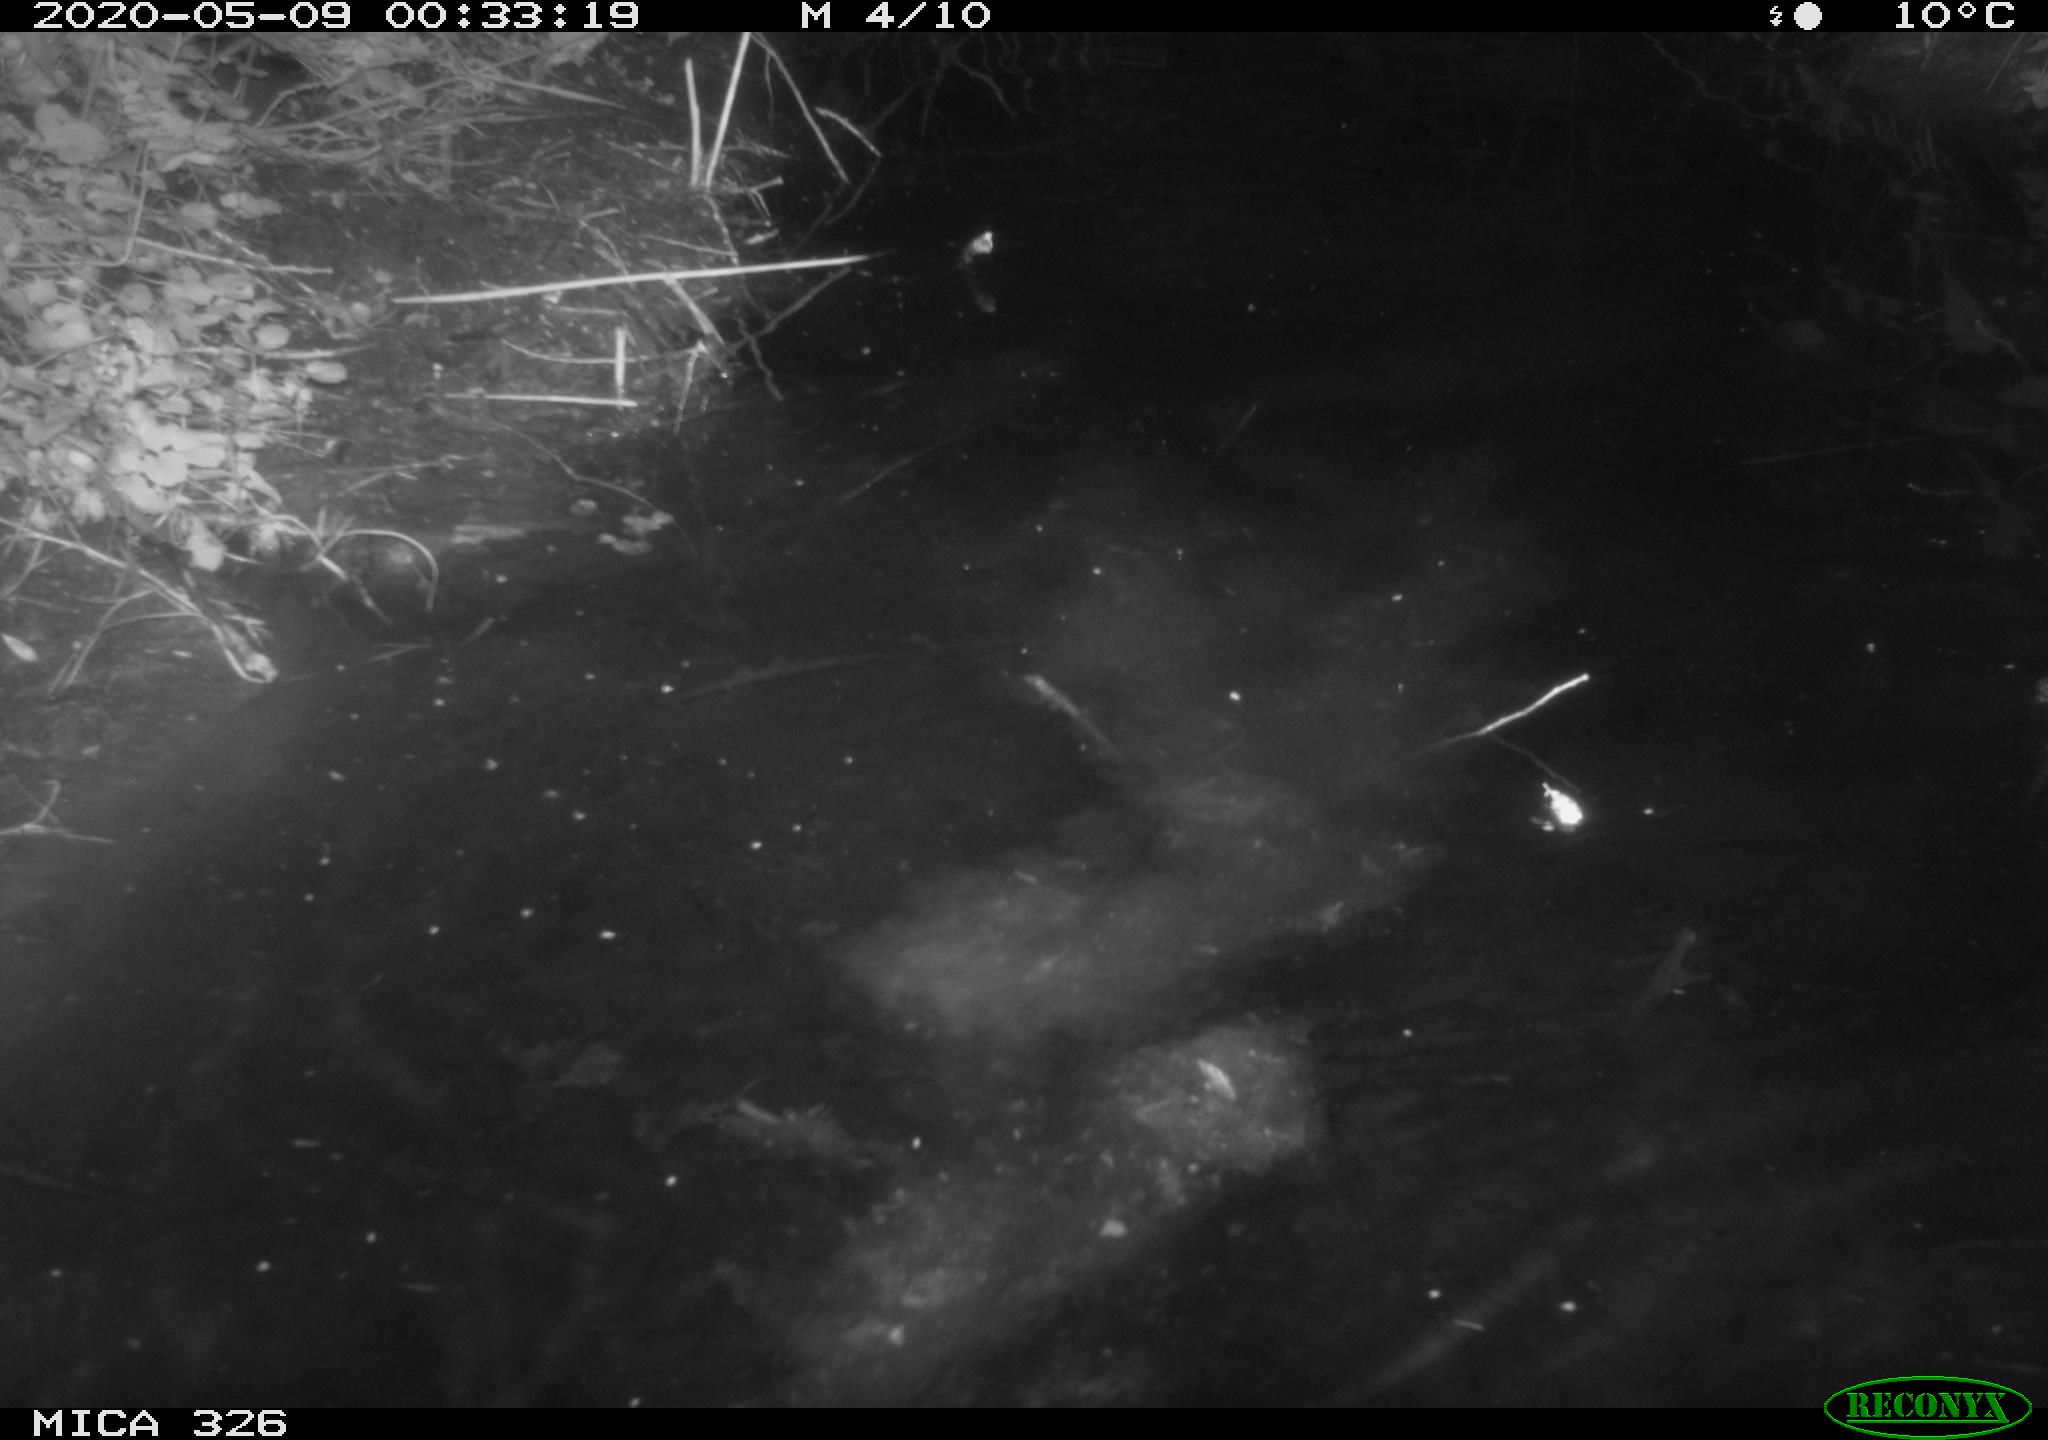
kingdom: Animalia
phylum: Chordata
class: Mammalia
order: Rodentia
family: Myocastoridae
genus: Myocastor
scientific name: Myocastor coypus
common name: Coypu
